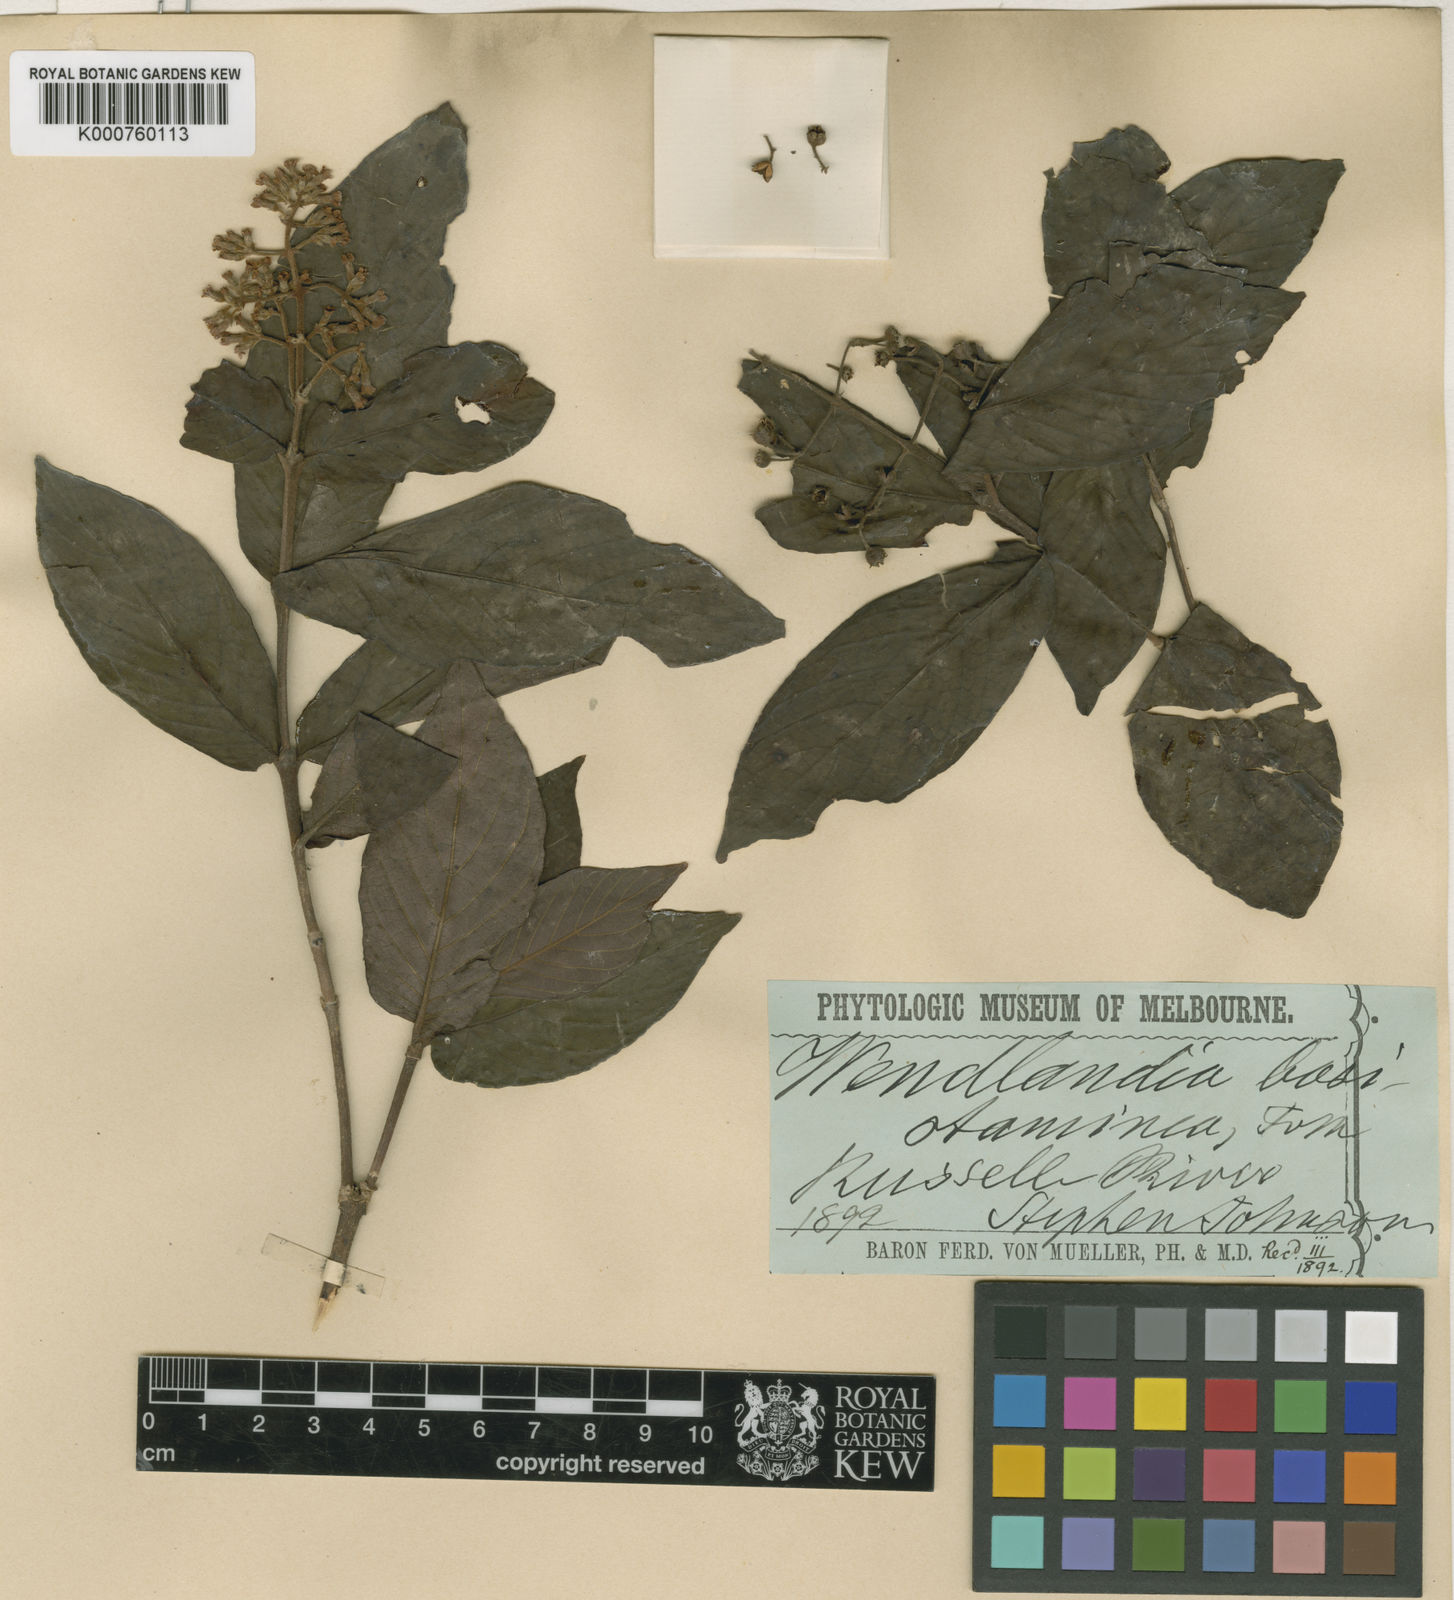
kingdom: Plantae
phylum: Tracheophyta
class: Magnoliopsida
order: Gentianales
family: Rubiaceae
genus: Wendlandia
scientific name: Wendlandia basistaminea
